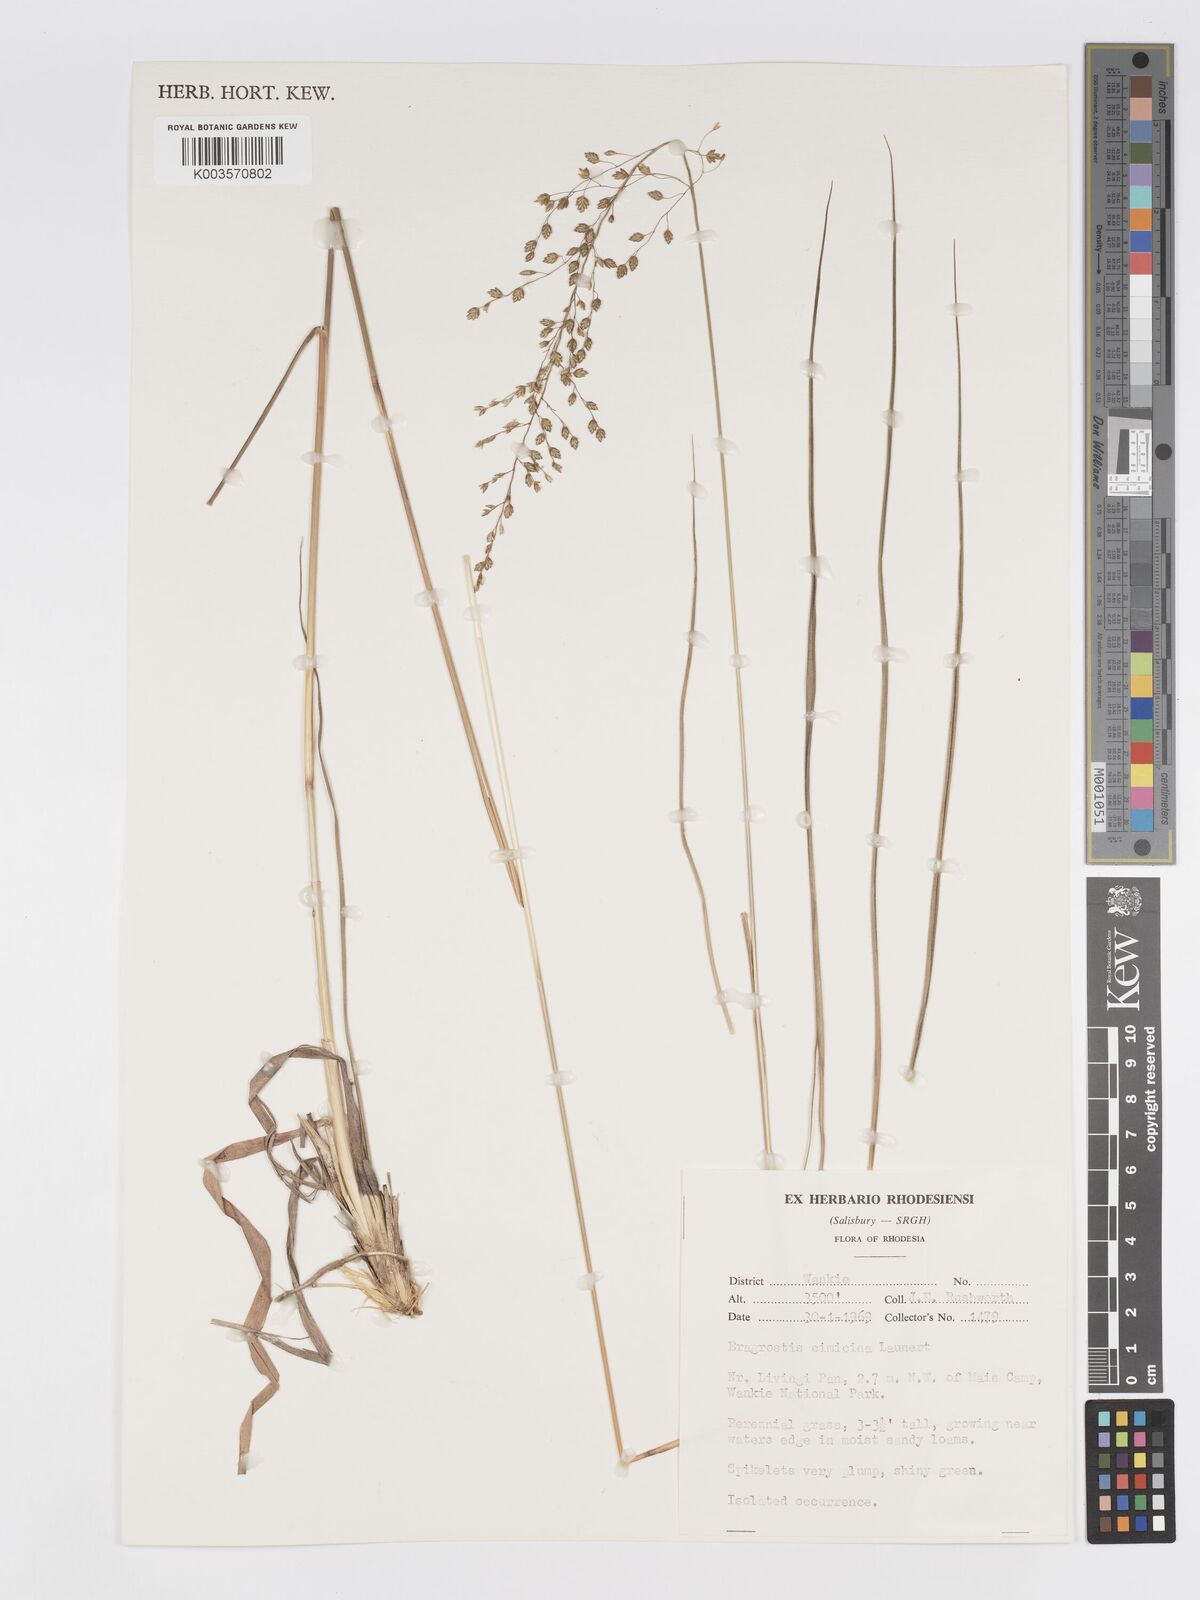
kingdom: Plantae
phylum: Tracheophyta
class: Liliopsida
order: Poales
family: Poaceae
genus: Eragrostis
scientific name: Eragrostis cimicina
